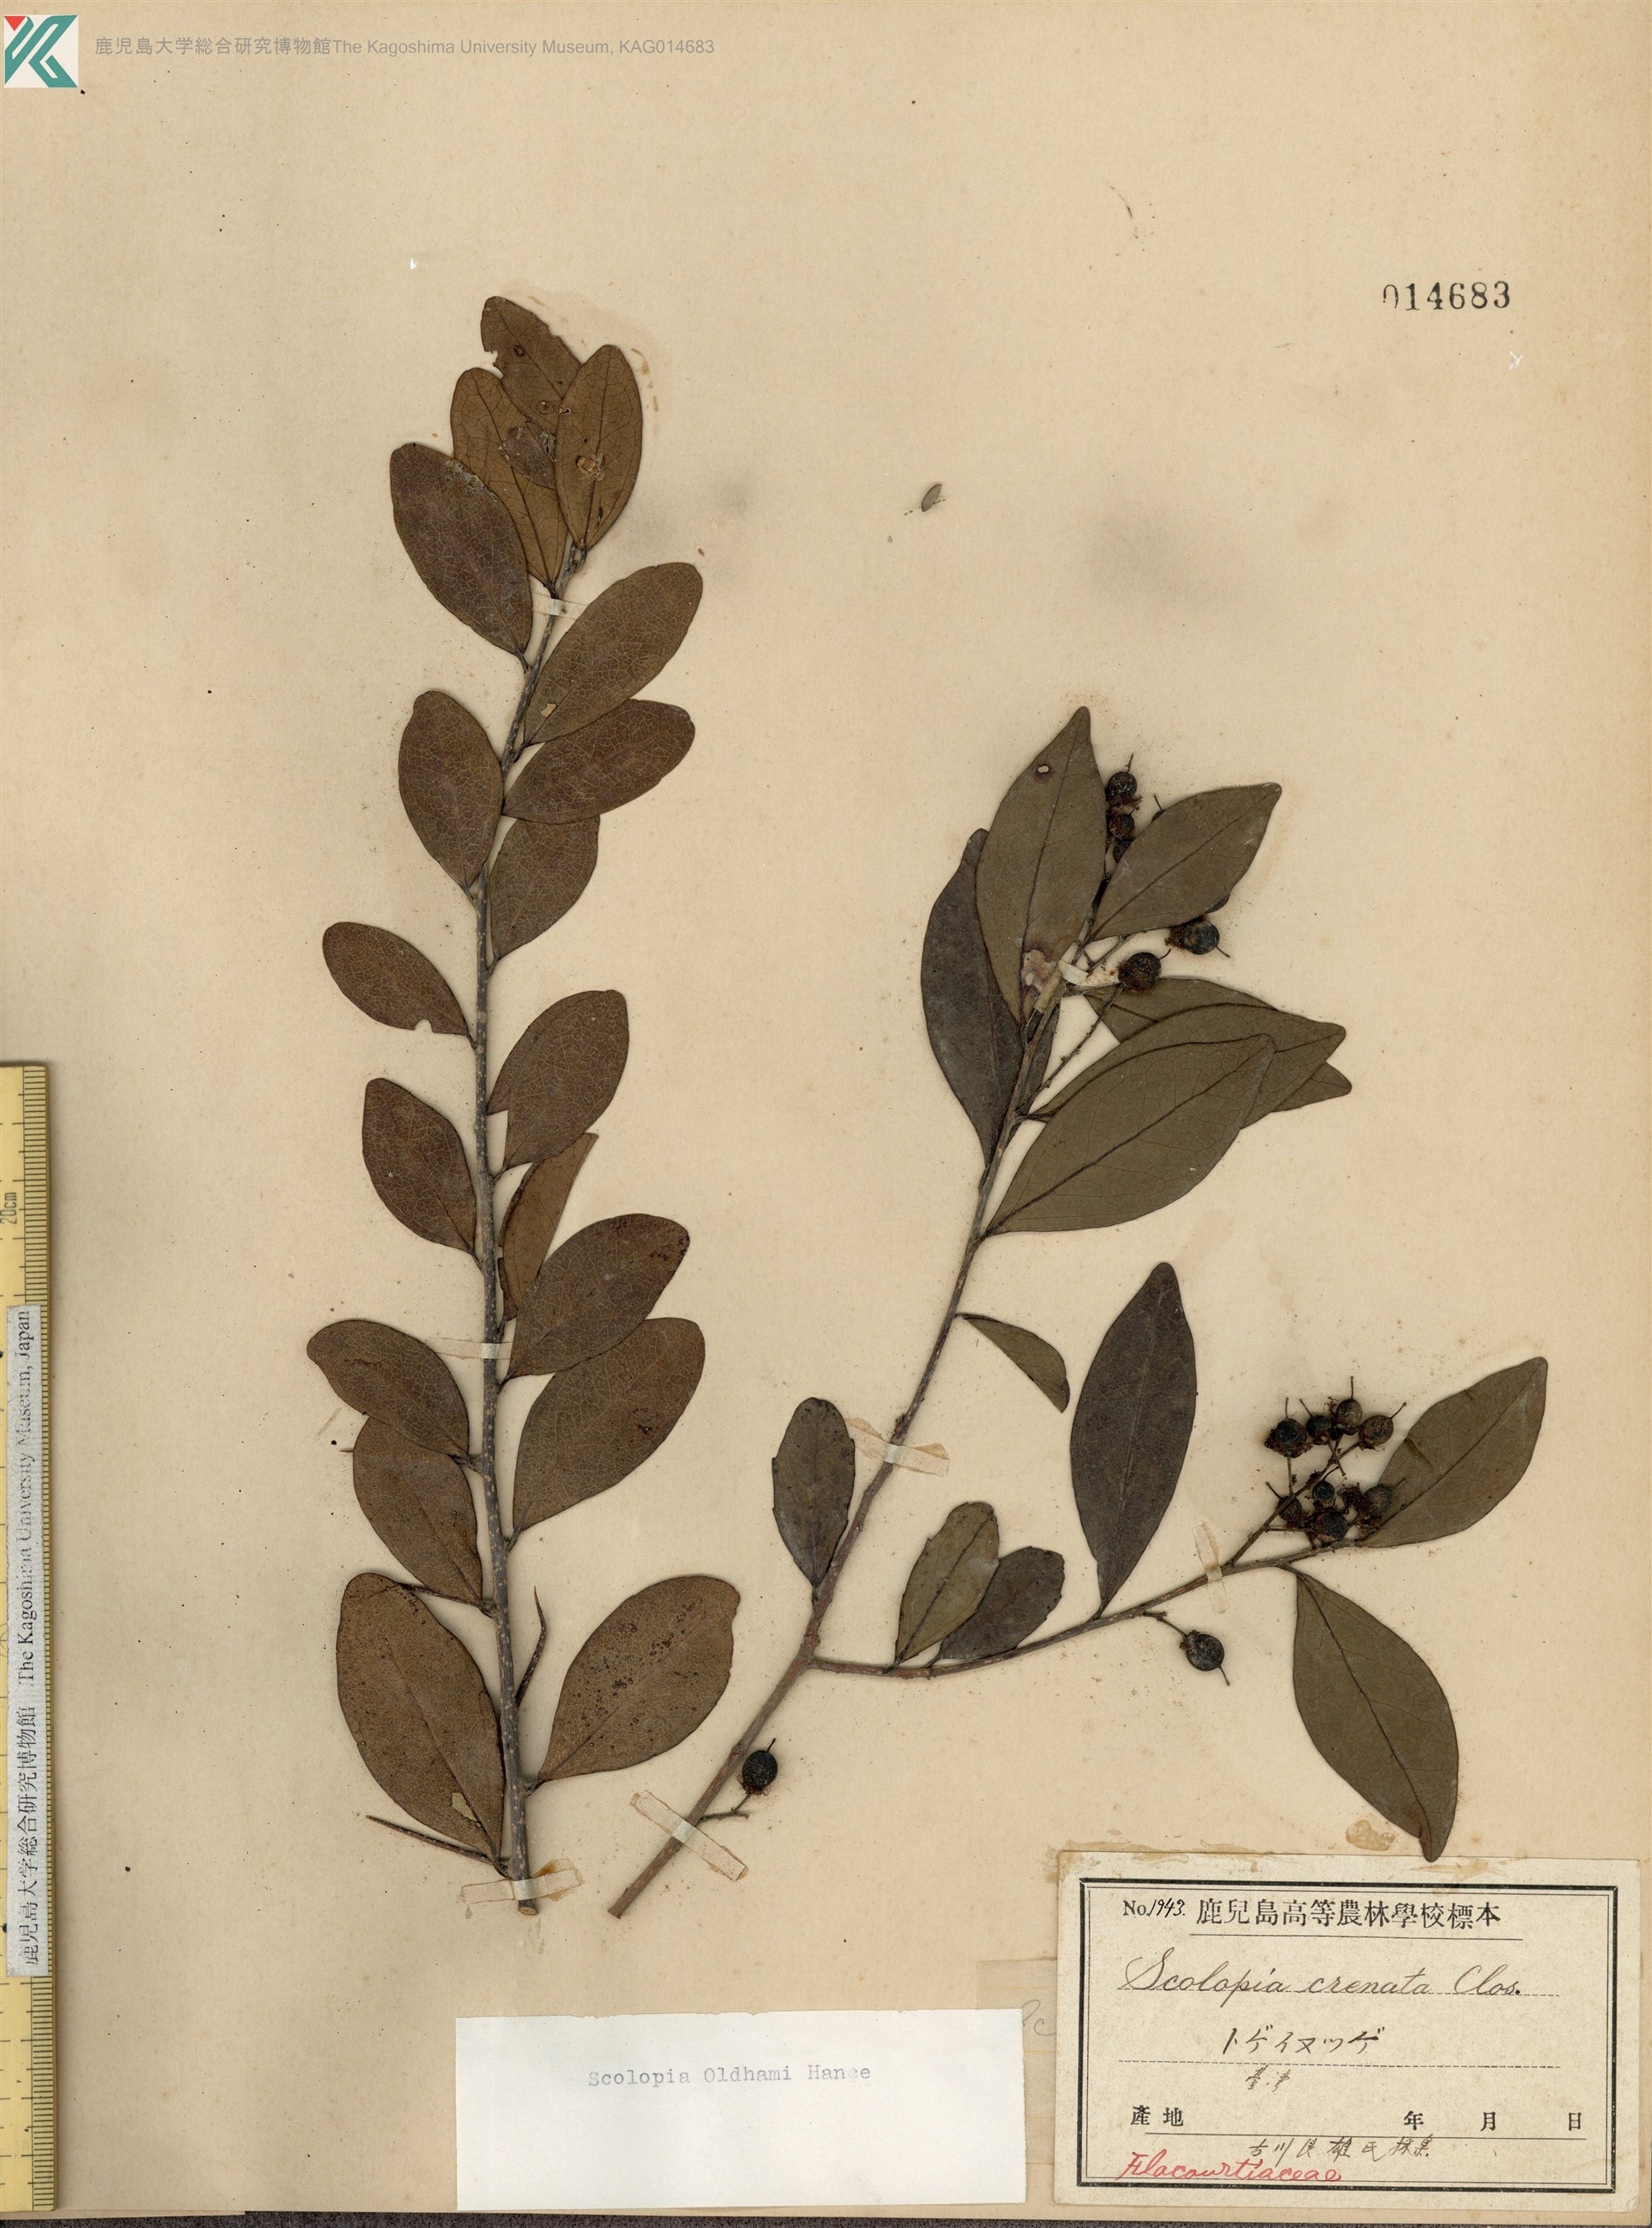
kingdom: Plantae
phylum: Tracheophyta
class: Magnoliopsida
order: Malpighiales
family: Salicaceae
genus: Scolopia
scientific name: Scolopia oldhamii
